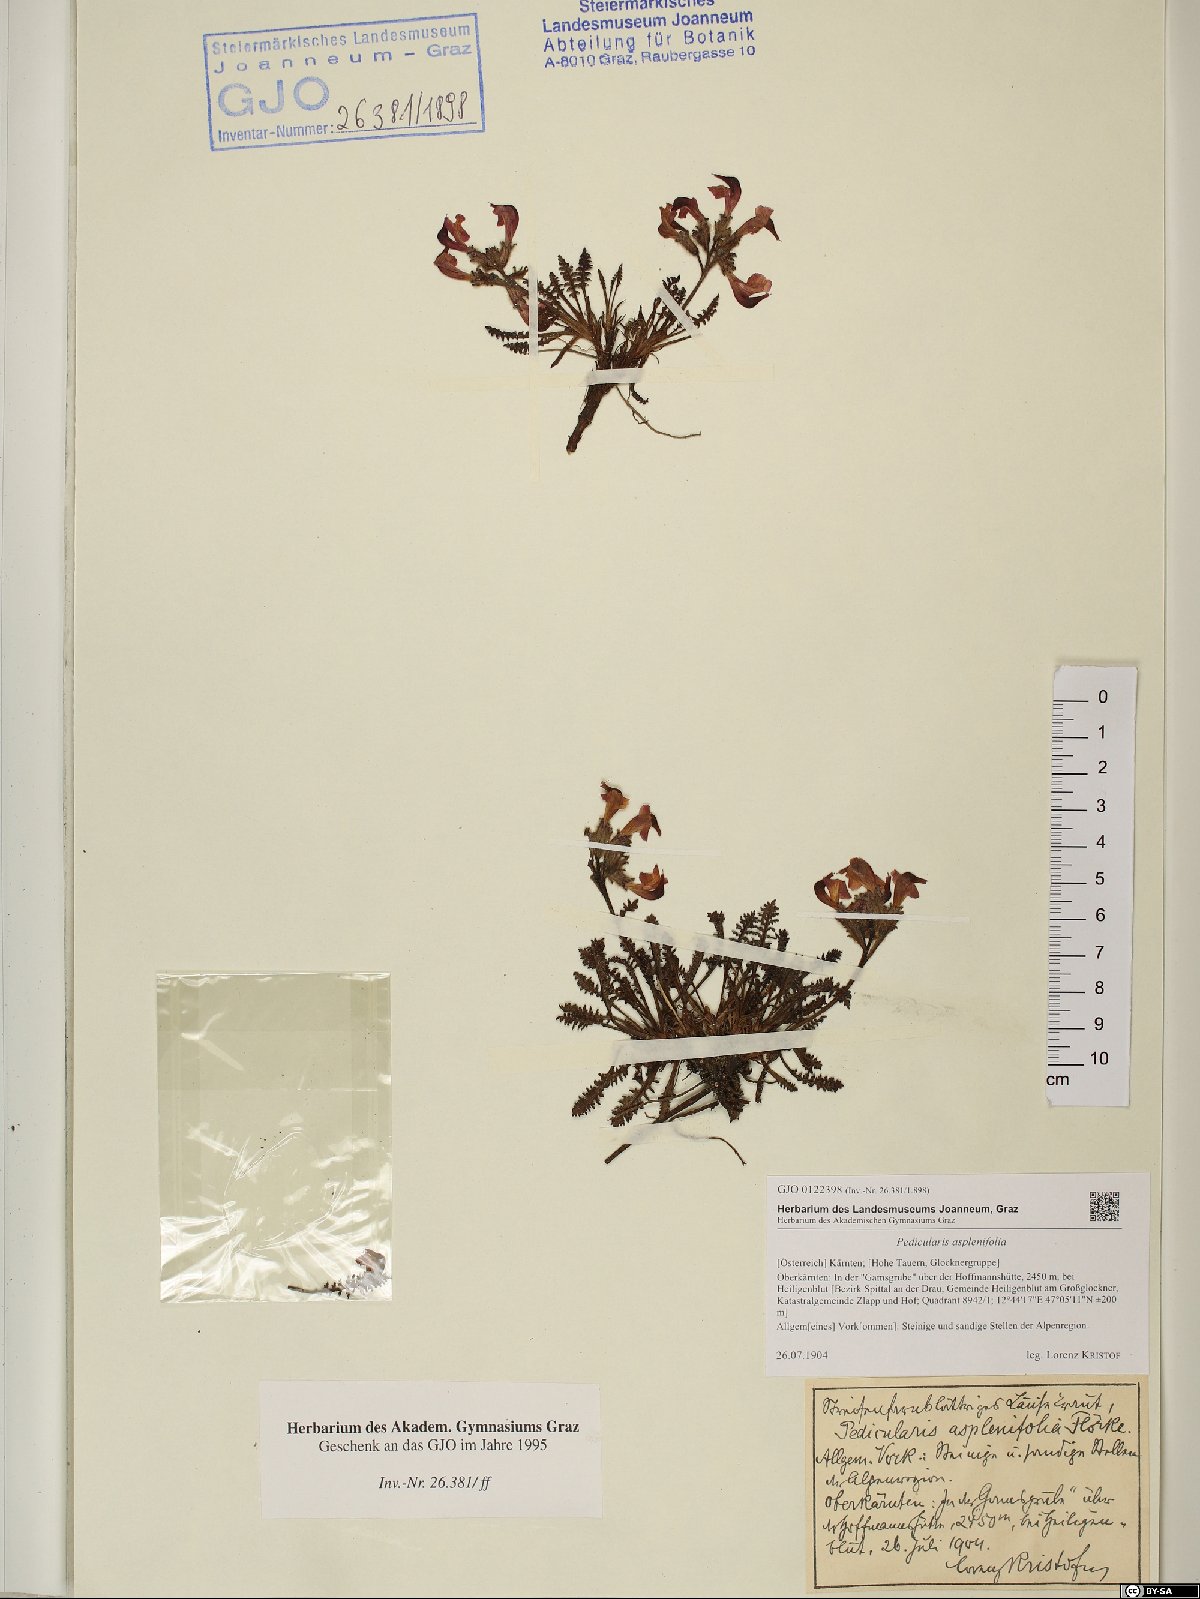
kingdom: Plantae
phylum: Tracheophyta
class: Magnoliopsida
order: Lamiales
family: Orobanchaceae
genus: Pedicularis
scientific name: Pedicularis asplenifolia
